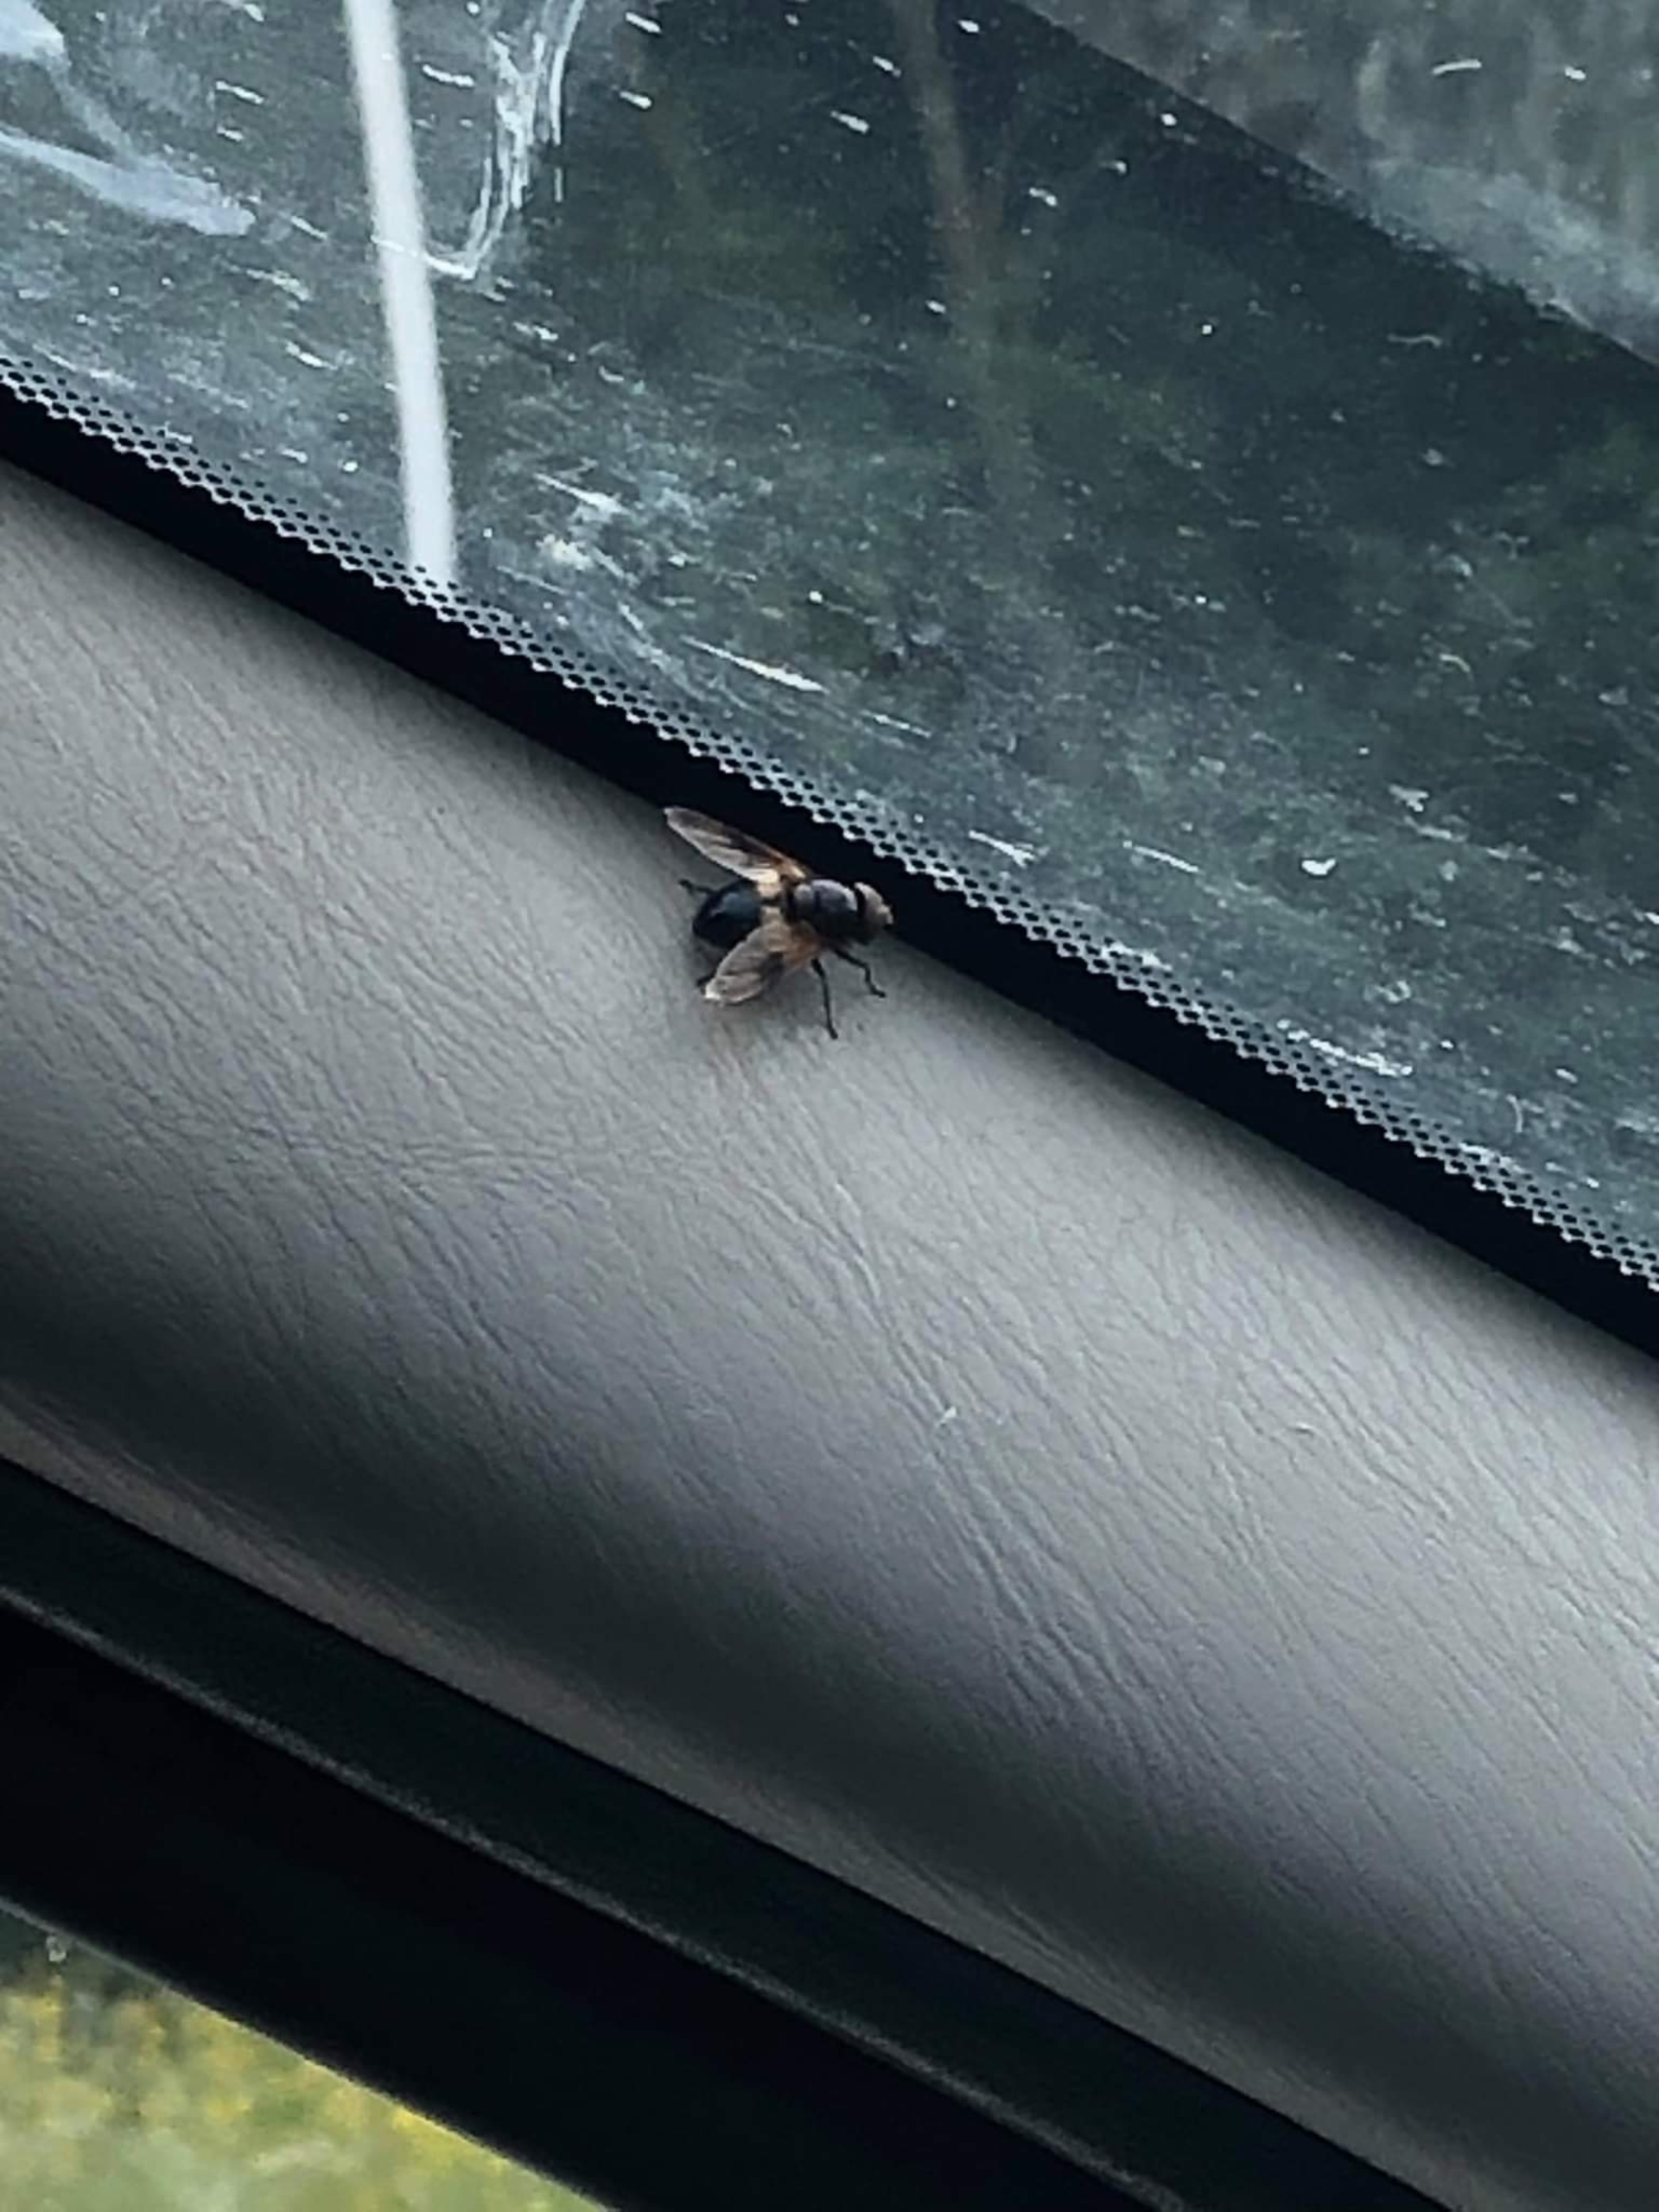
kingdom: Animalia
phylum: Arthropoda
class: Insecta
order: Diptera
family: Syrphidae
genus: Volucella
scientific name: Volucella pellucens
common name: Hvidbåndet humlesvirreflue
